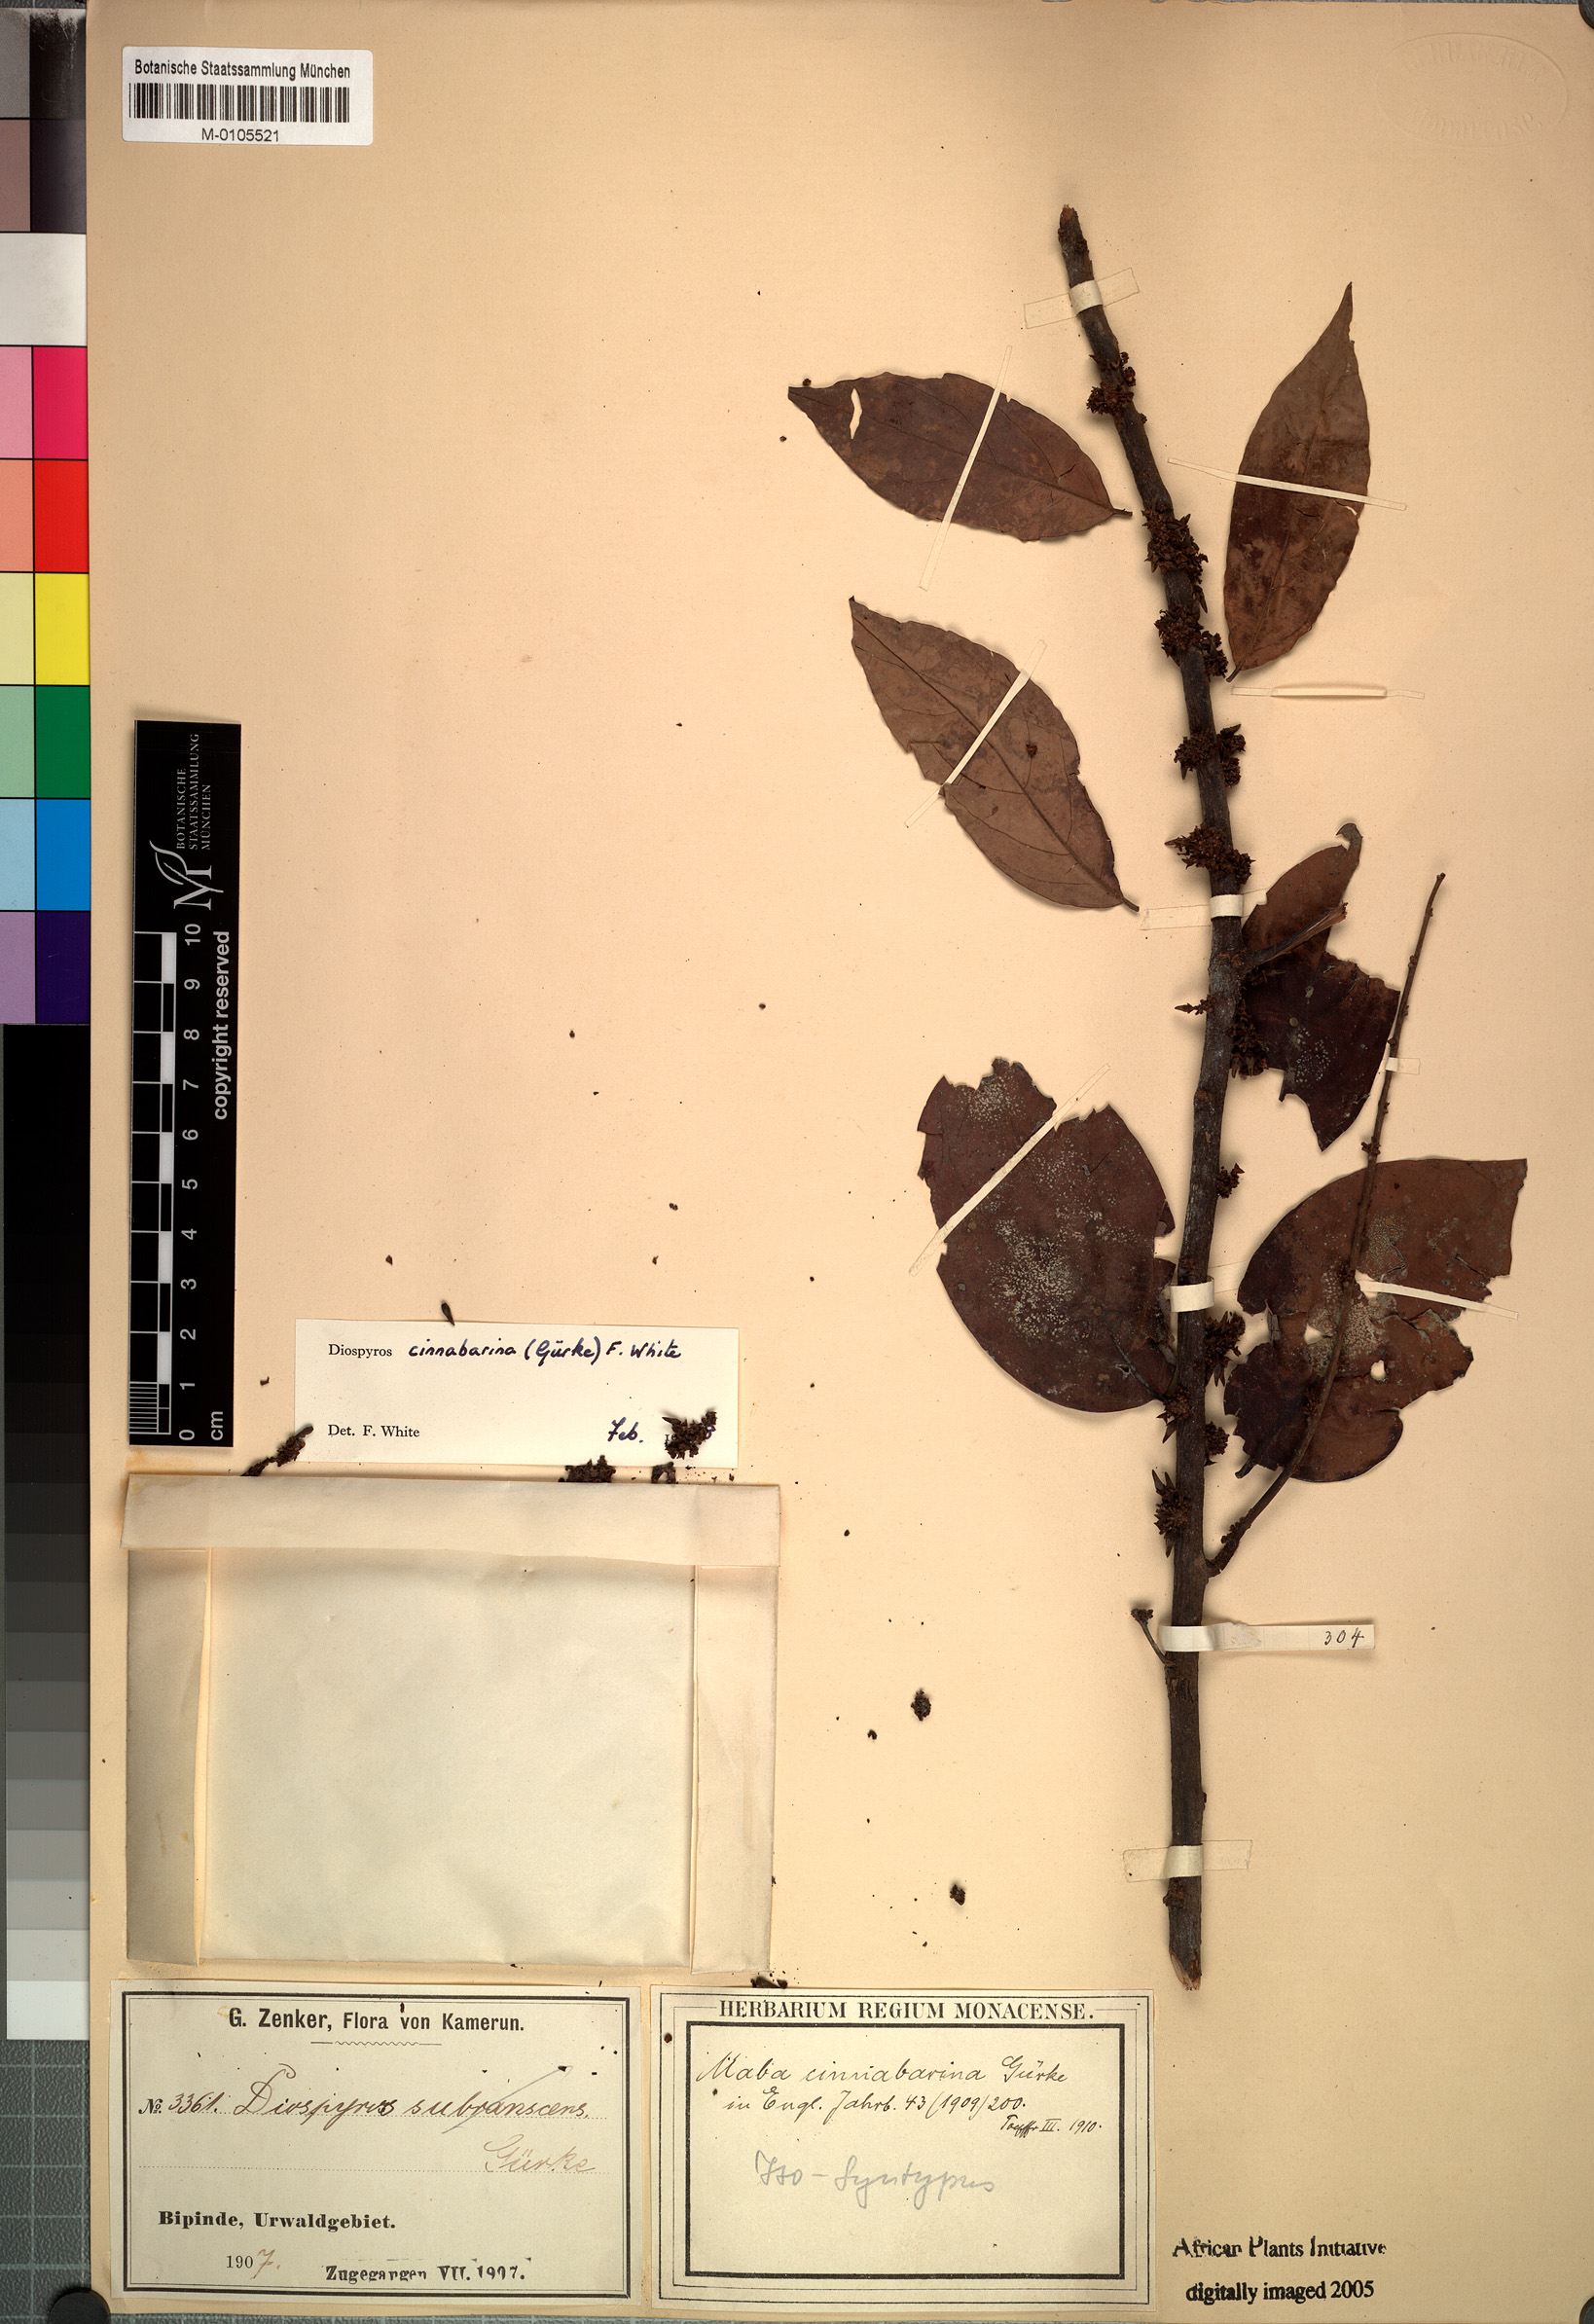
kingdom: Plantae
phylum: Tracheophyta
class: Magnoliopsida
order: Ericales
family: Ebenaceae
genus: Diospyros
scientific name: Diospyros cinnabarina
